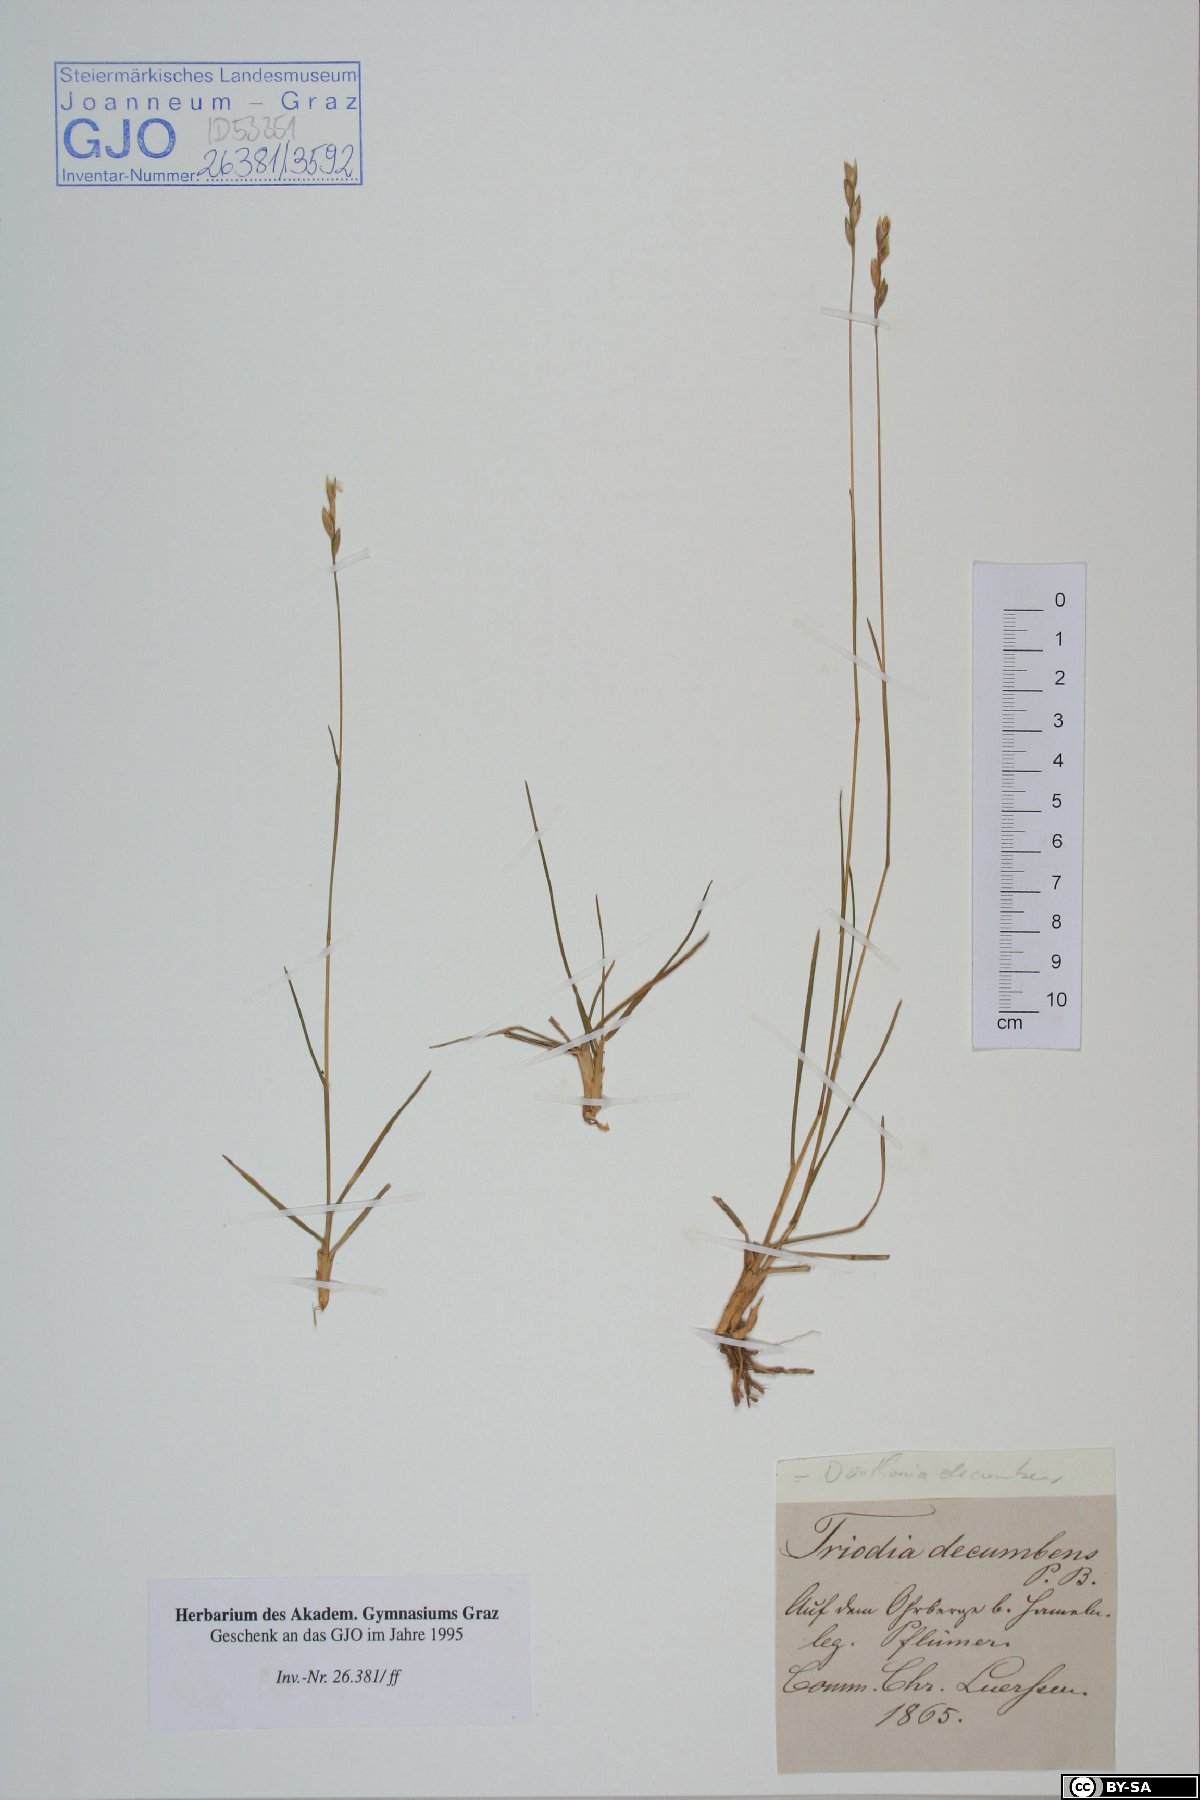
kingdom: Plantae
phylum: Tracheophyta
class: Liliopsida
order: Poales
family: Poaceae
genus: Danthonia
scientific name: Danthonia decumbens
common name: Common heathgrass
